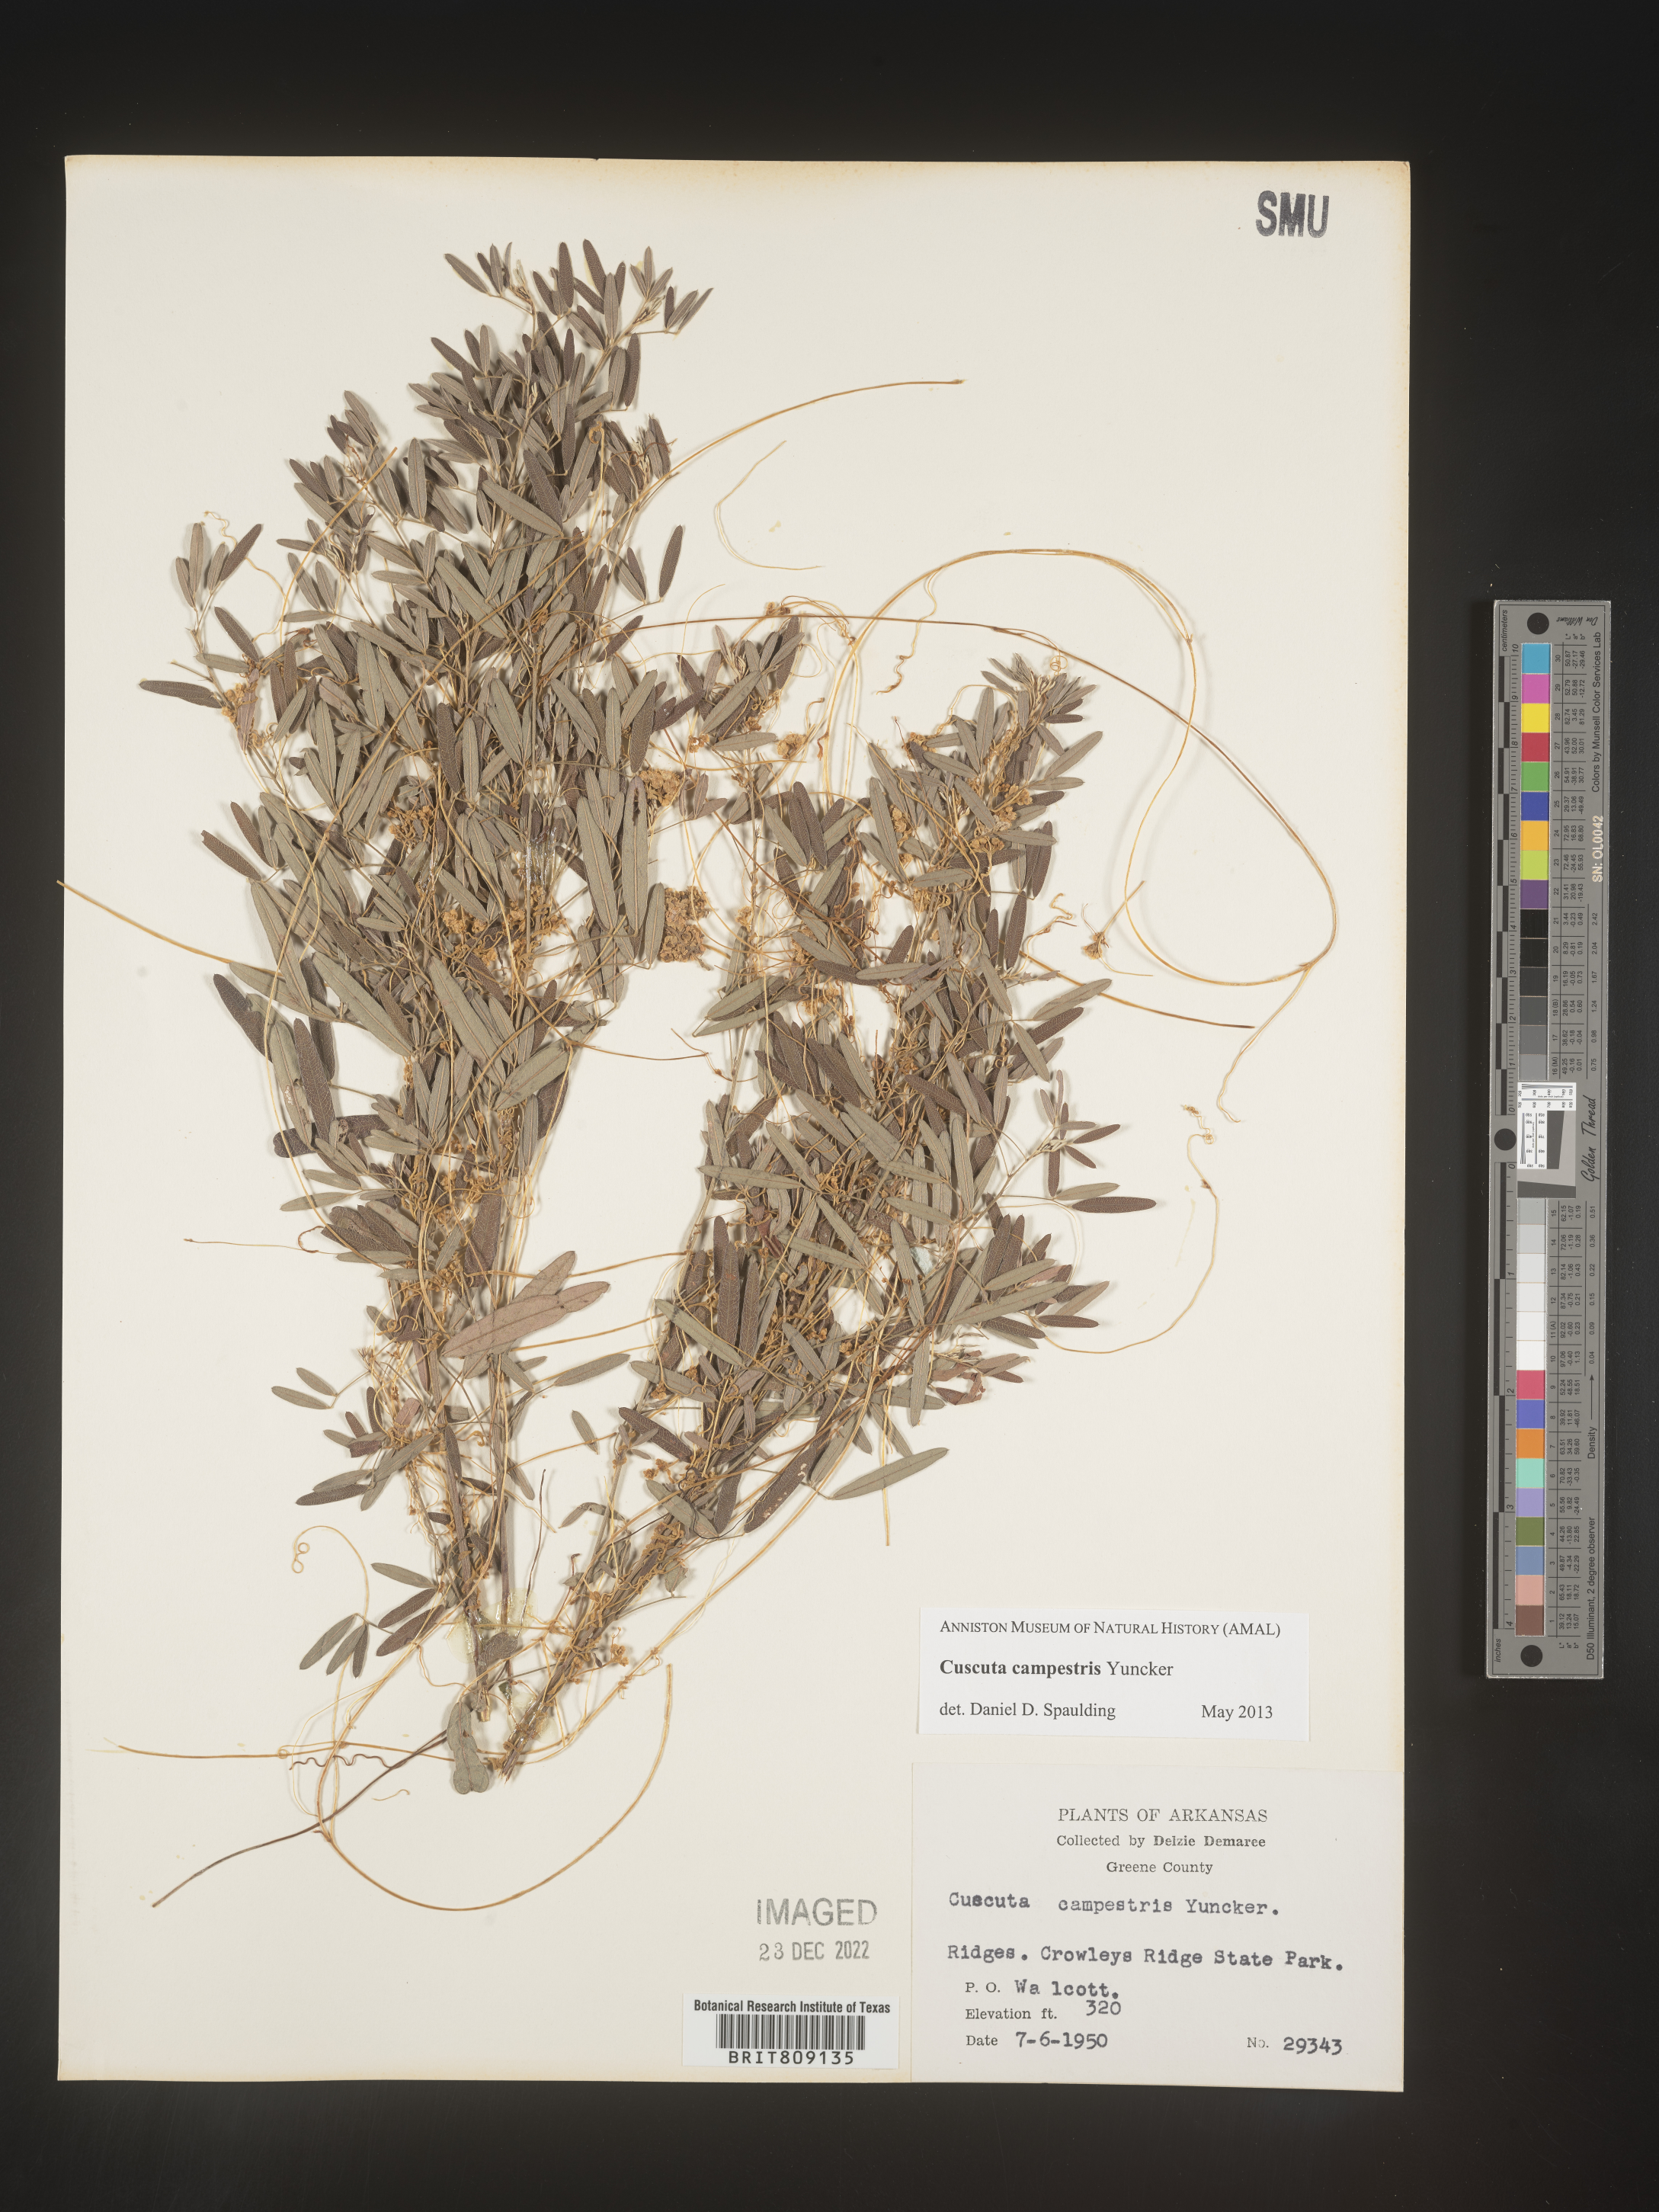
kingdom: Plantae
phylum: Tracheophyta
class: Magnoliopsida
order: Solanales
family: Convolvulaceae
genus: Cuscuta
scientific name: Cuscuta campestris
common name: Yellow dodder
